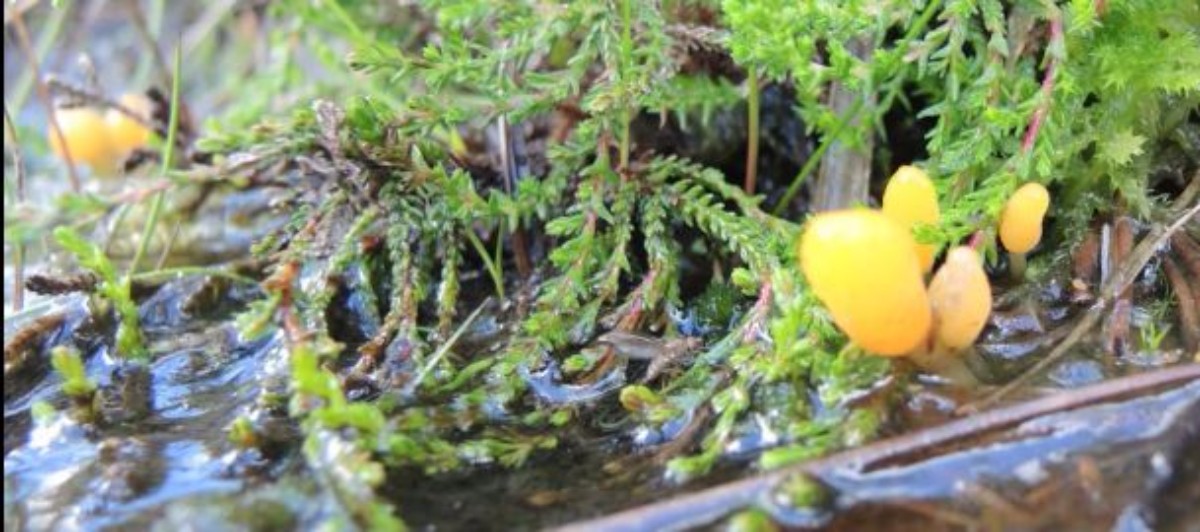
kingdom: Fungi
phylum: Ascomycota
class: Leotiomycetes
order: Helotiales
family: Cenangiaceae
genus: Mitrula
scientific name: Mitrula paludosa
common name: gul nøkketunge
